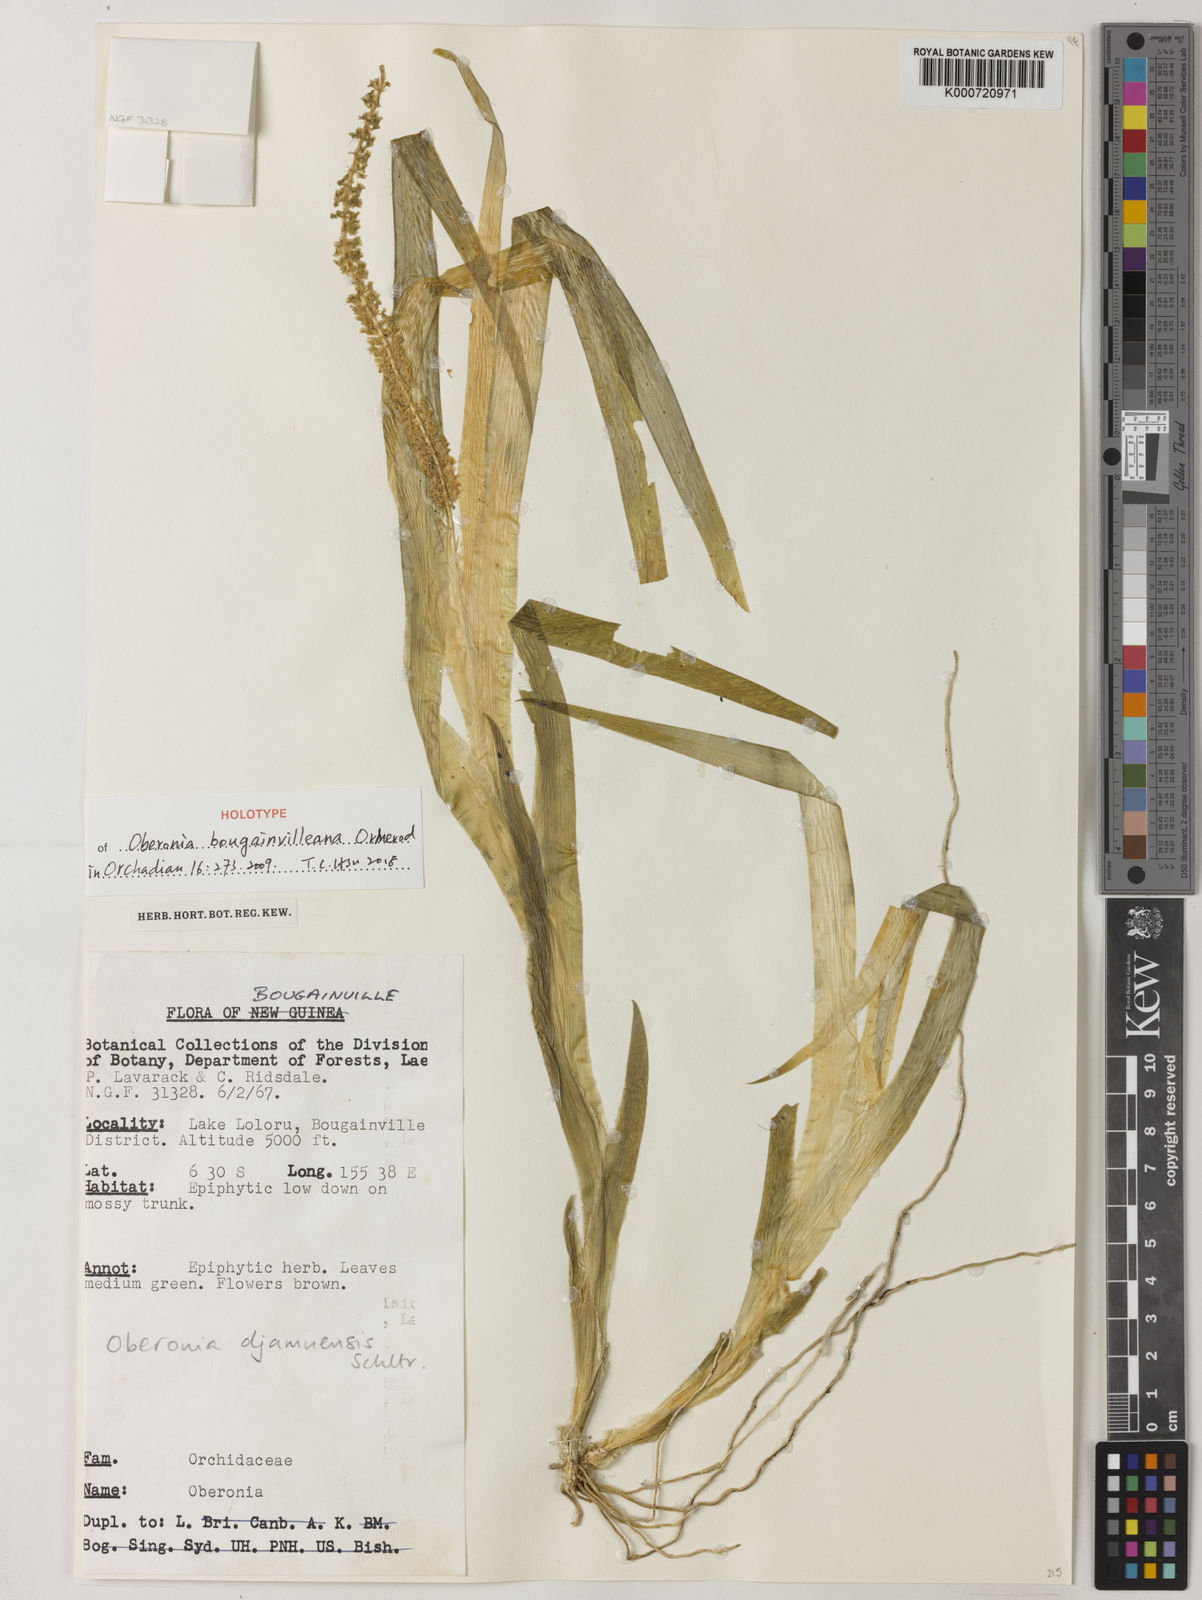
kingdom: Plantae
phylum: Tracheophyta
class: Liliopsida
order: Asparagales
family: Orchidaceae
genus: Oberonia
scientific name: Oberonia bougainvilleana
